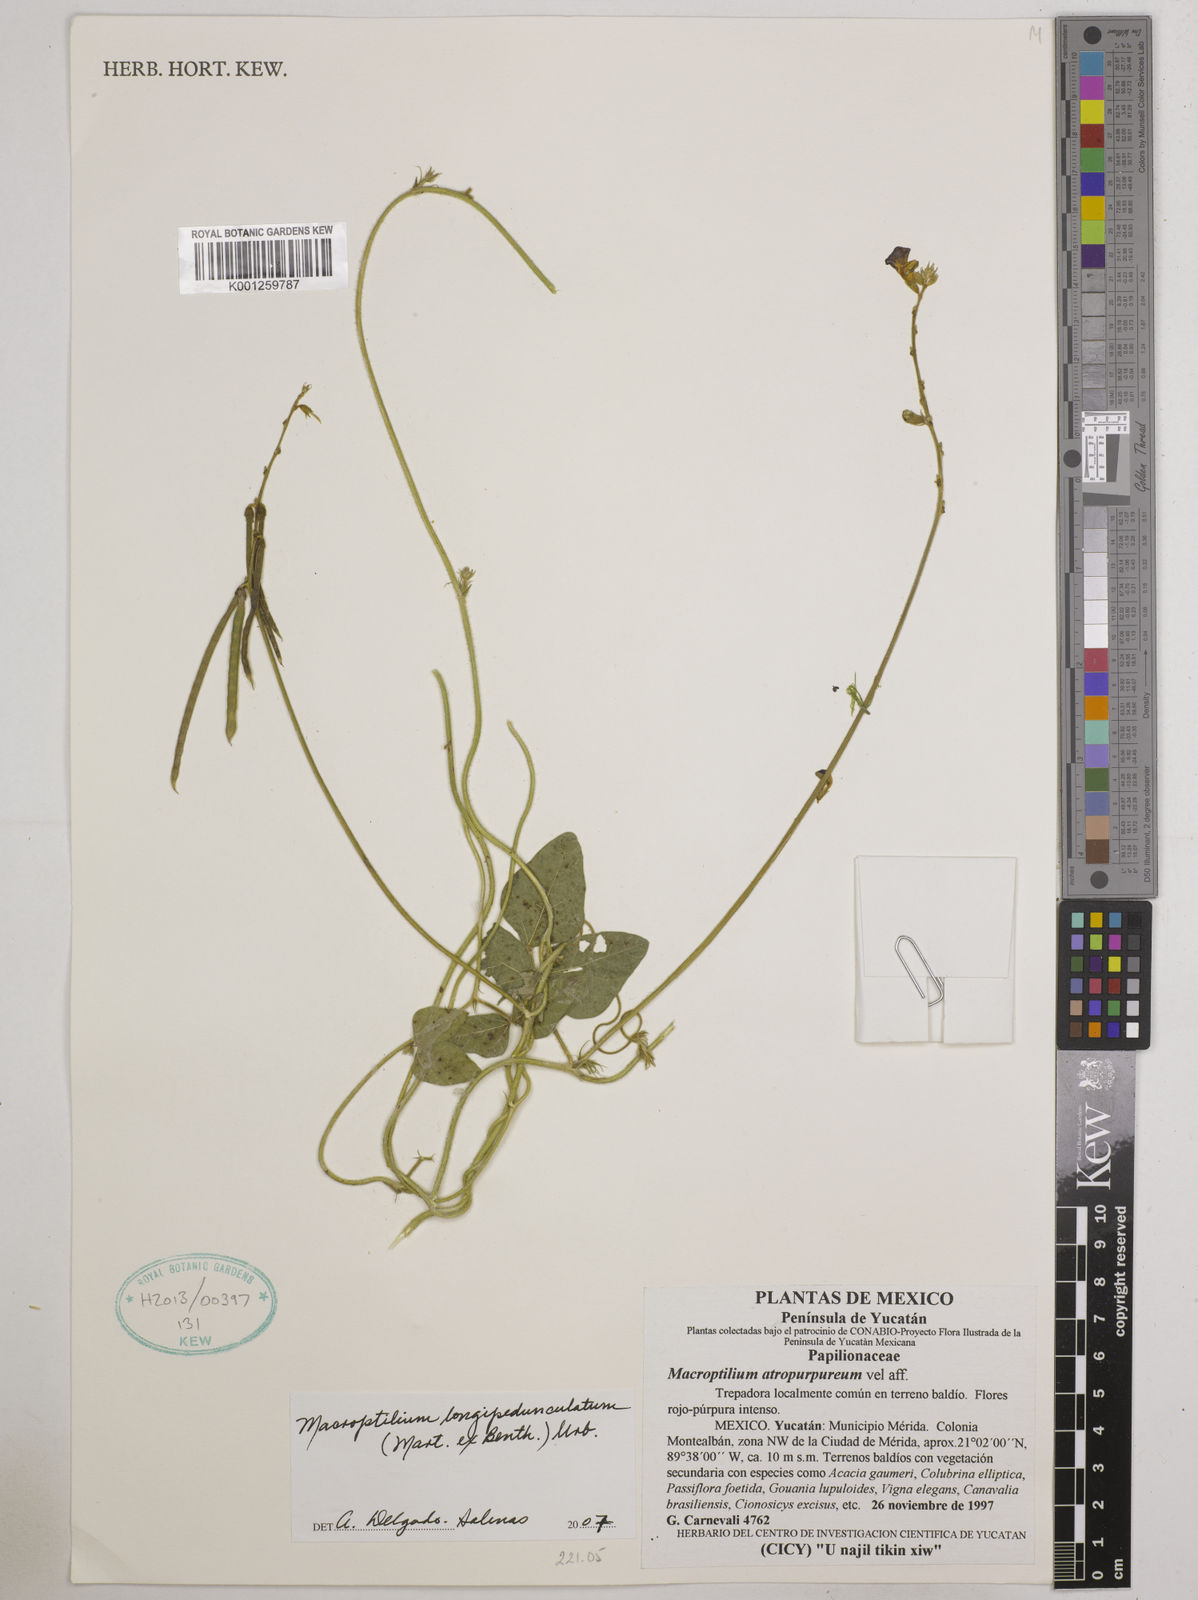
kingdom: Plantae
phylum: Tracheophyta
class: Magnoliopsida
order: Fabales
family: Fabaceae
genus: Macroptilium
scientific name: Macroptilium longepedunculatum
